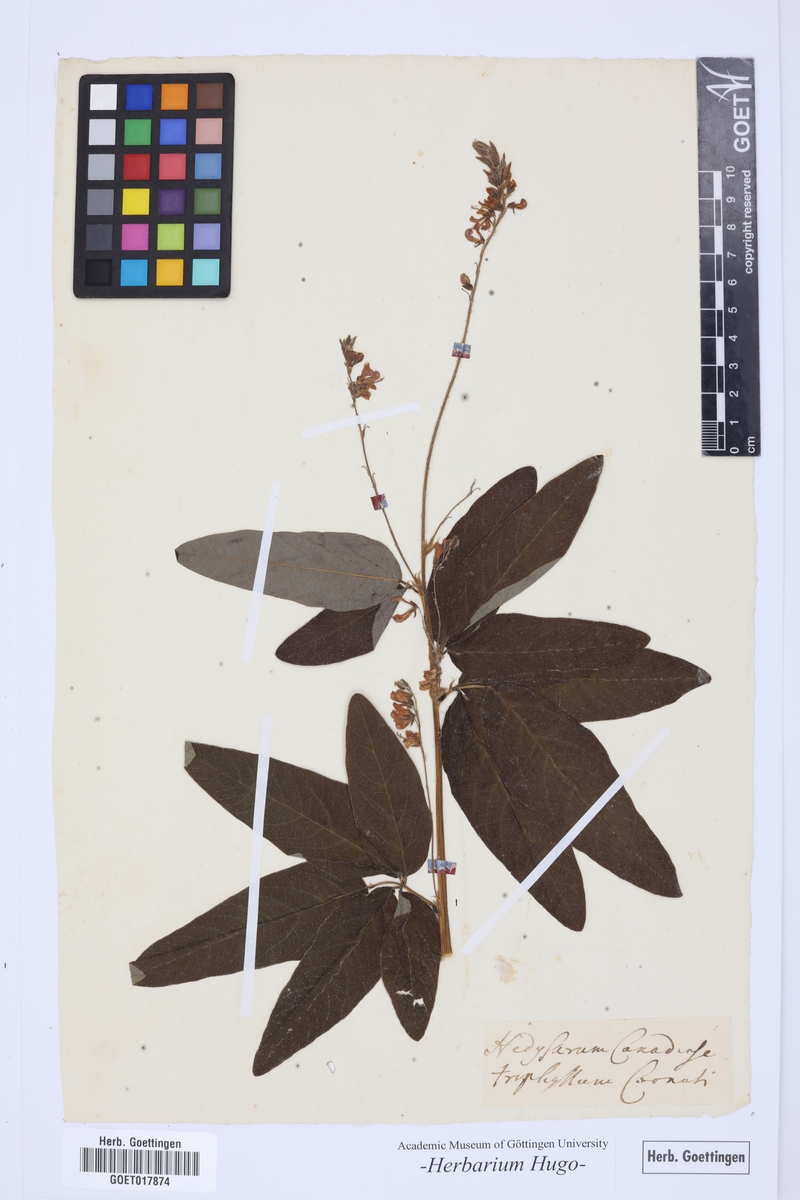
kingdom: Plantae
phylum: Tracheophyta
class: Magnoliopsida
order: Fabales
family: Fabaceae
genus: Desmodium
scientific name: Desmodium canadense
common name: Canada tick-trefoil
